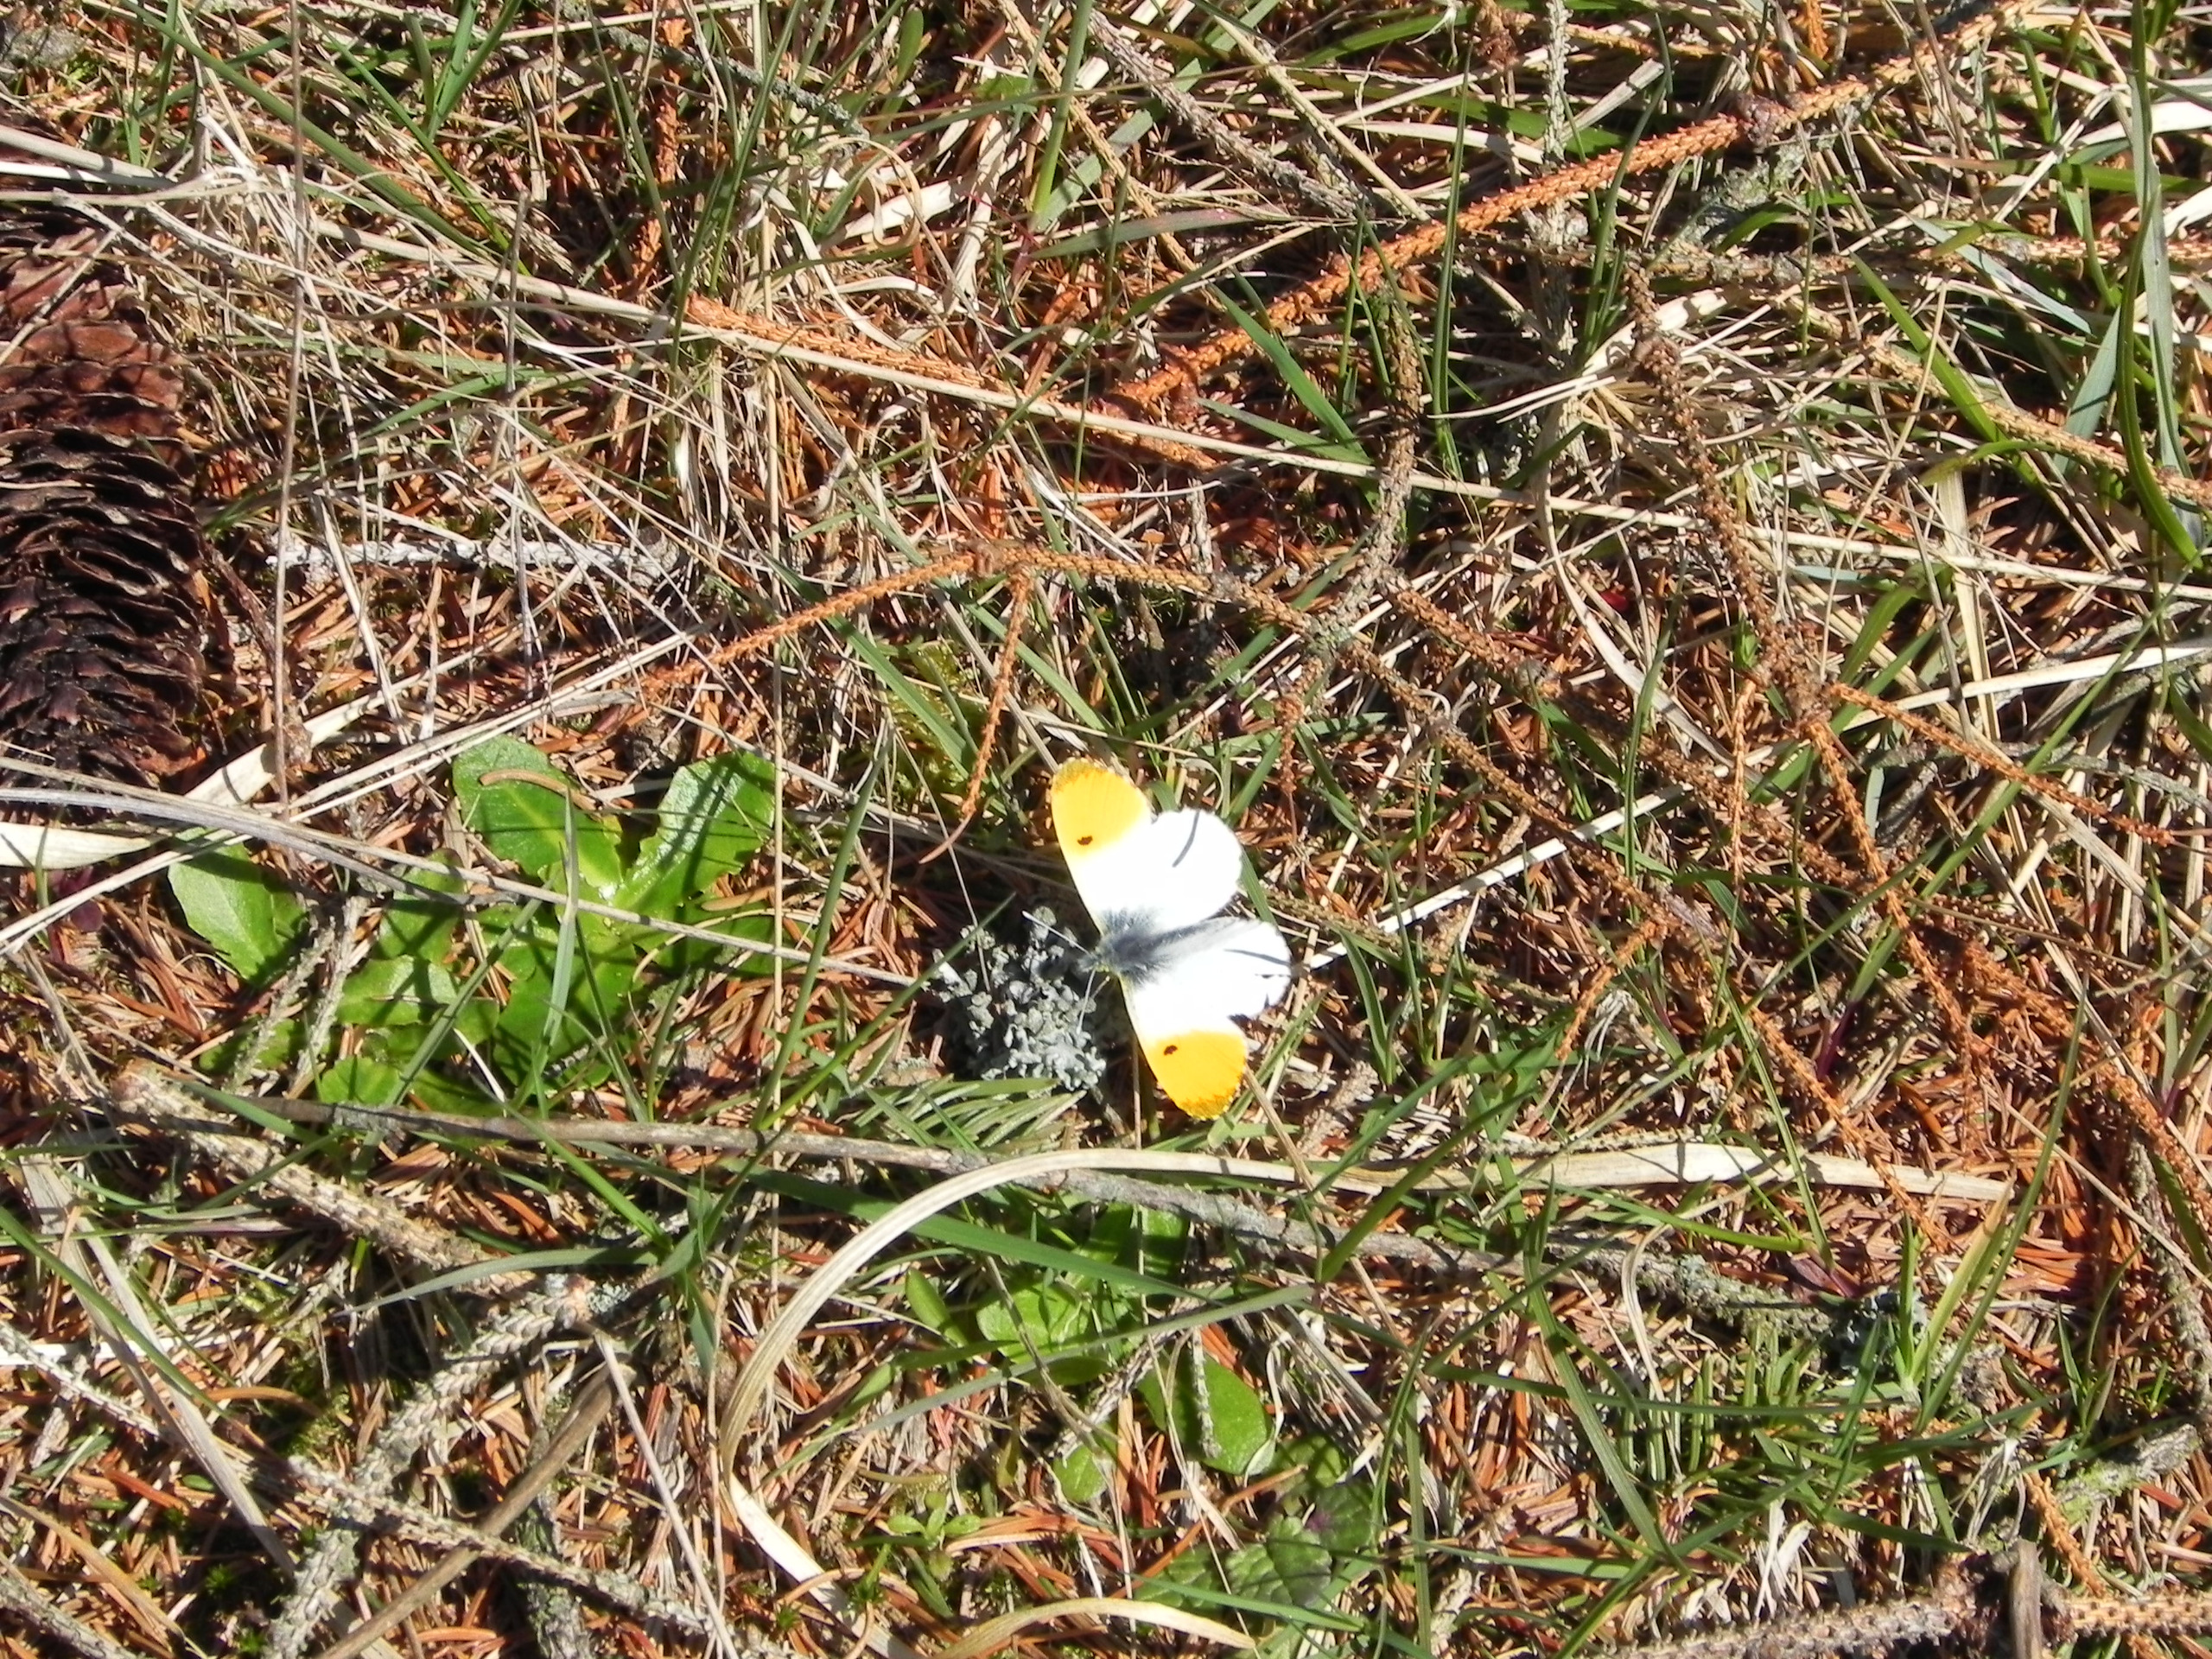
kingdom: Animalia
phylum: Arthropoda
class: Insecta
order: Lepidoptera
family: Pieridae
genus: Anthocharis
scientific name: Anthocharis cardamines
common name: Aurora
